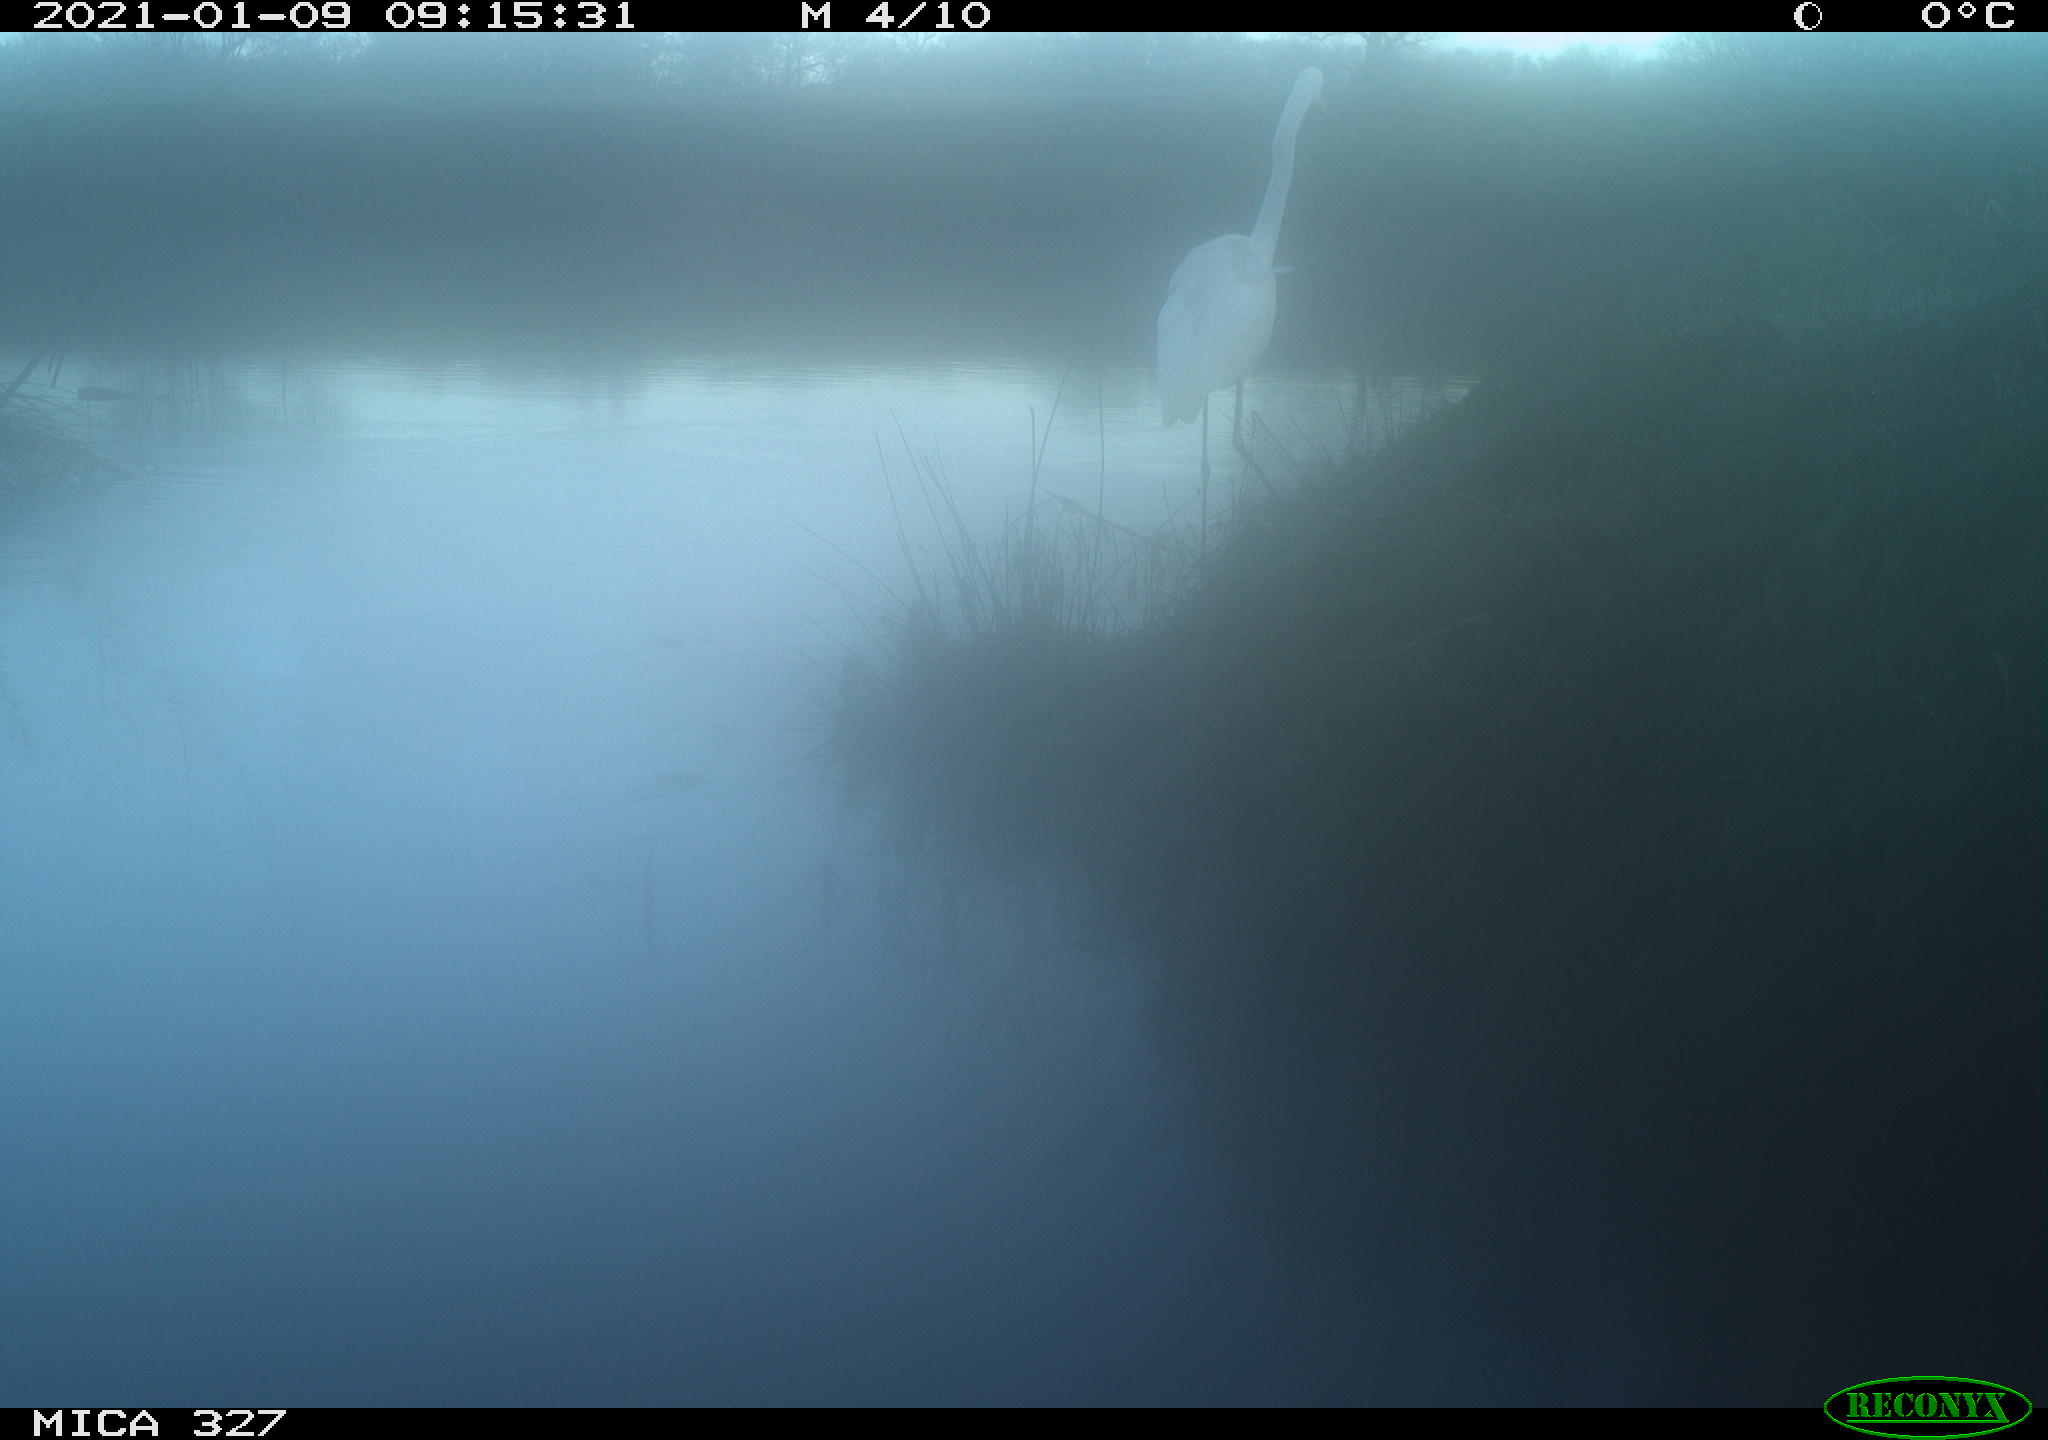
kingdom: Animalia
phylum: Chordata
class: Aves
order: Pelecaniformes
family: Ardeidae
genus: Ardea
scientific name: Ardea alba
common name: Great egret
